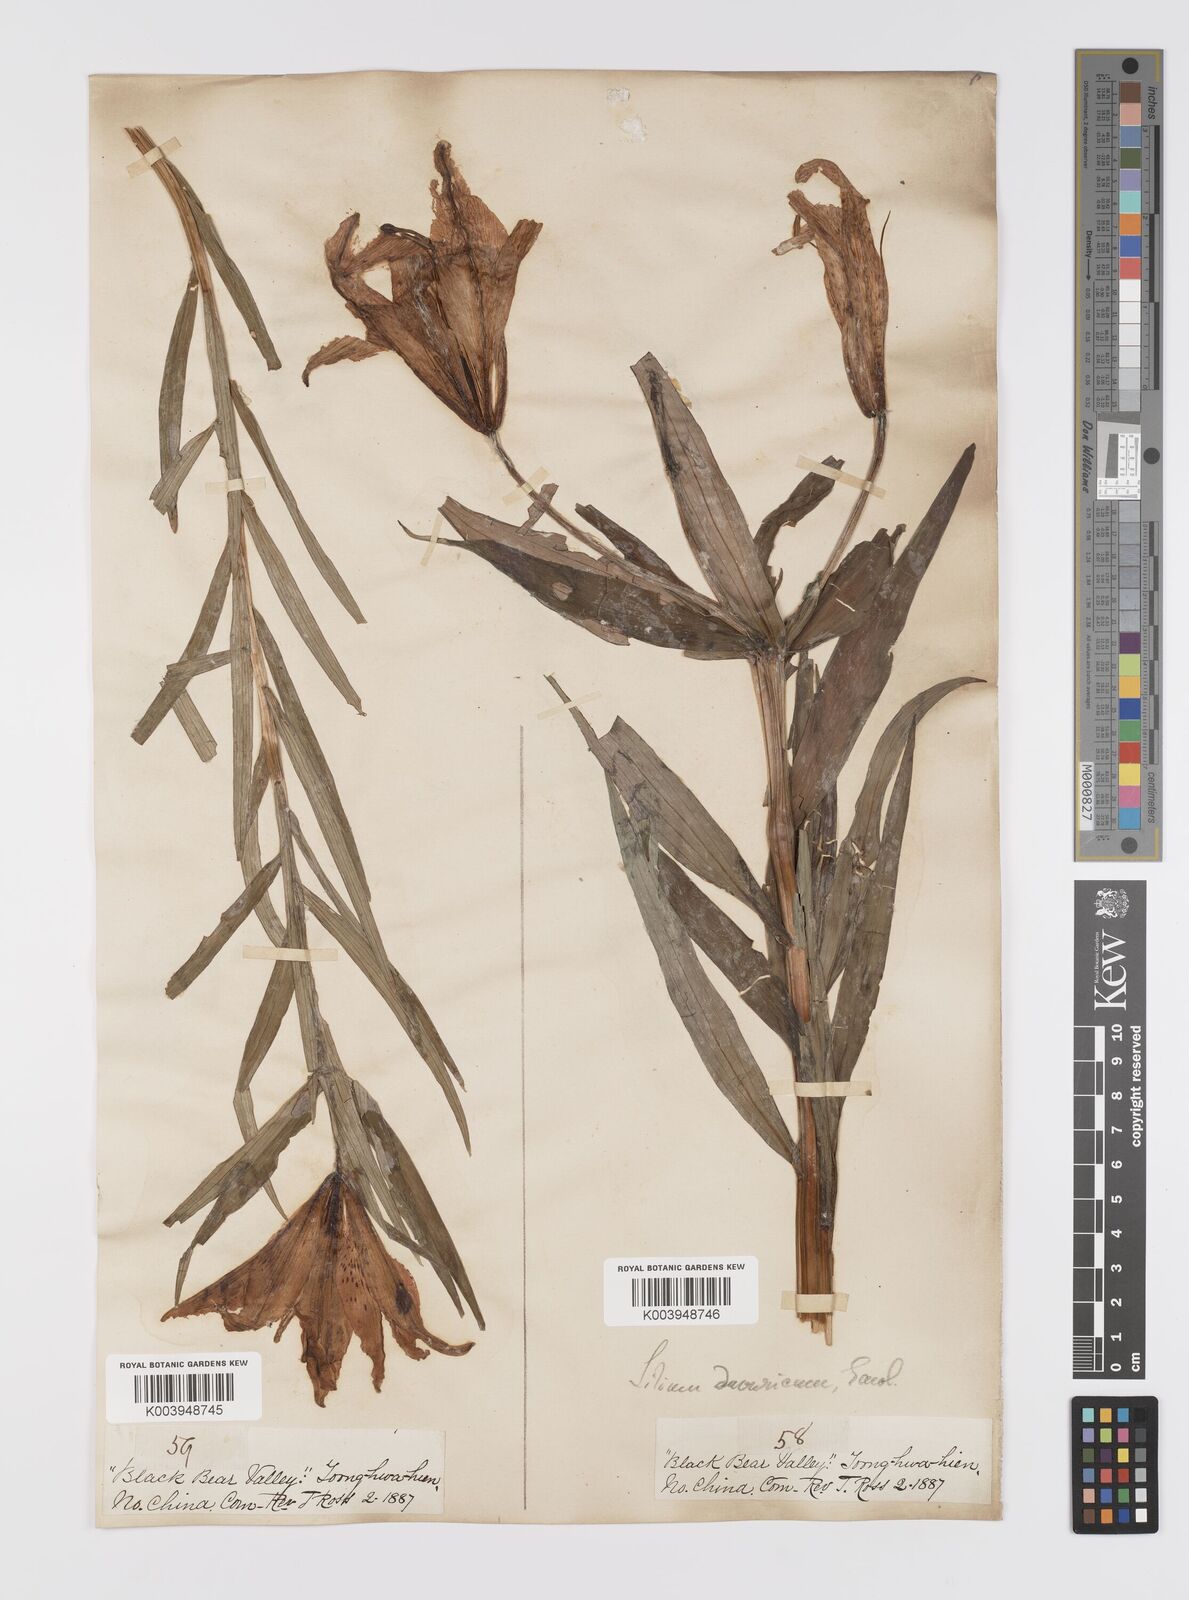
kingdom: Plantae
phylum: Tracheophyta
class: Liliopsida
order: Liliales
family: Liliaceae
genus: Lilium
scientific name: Lilium pensylvanicum
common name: Candlestick lily
